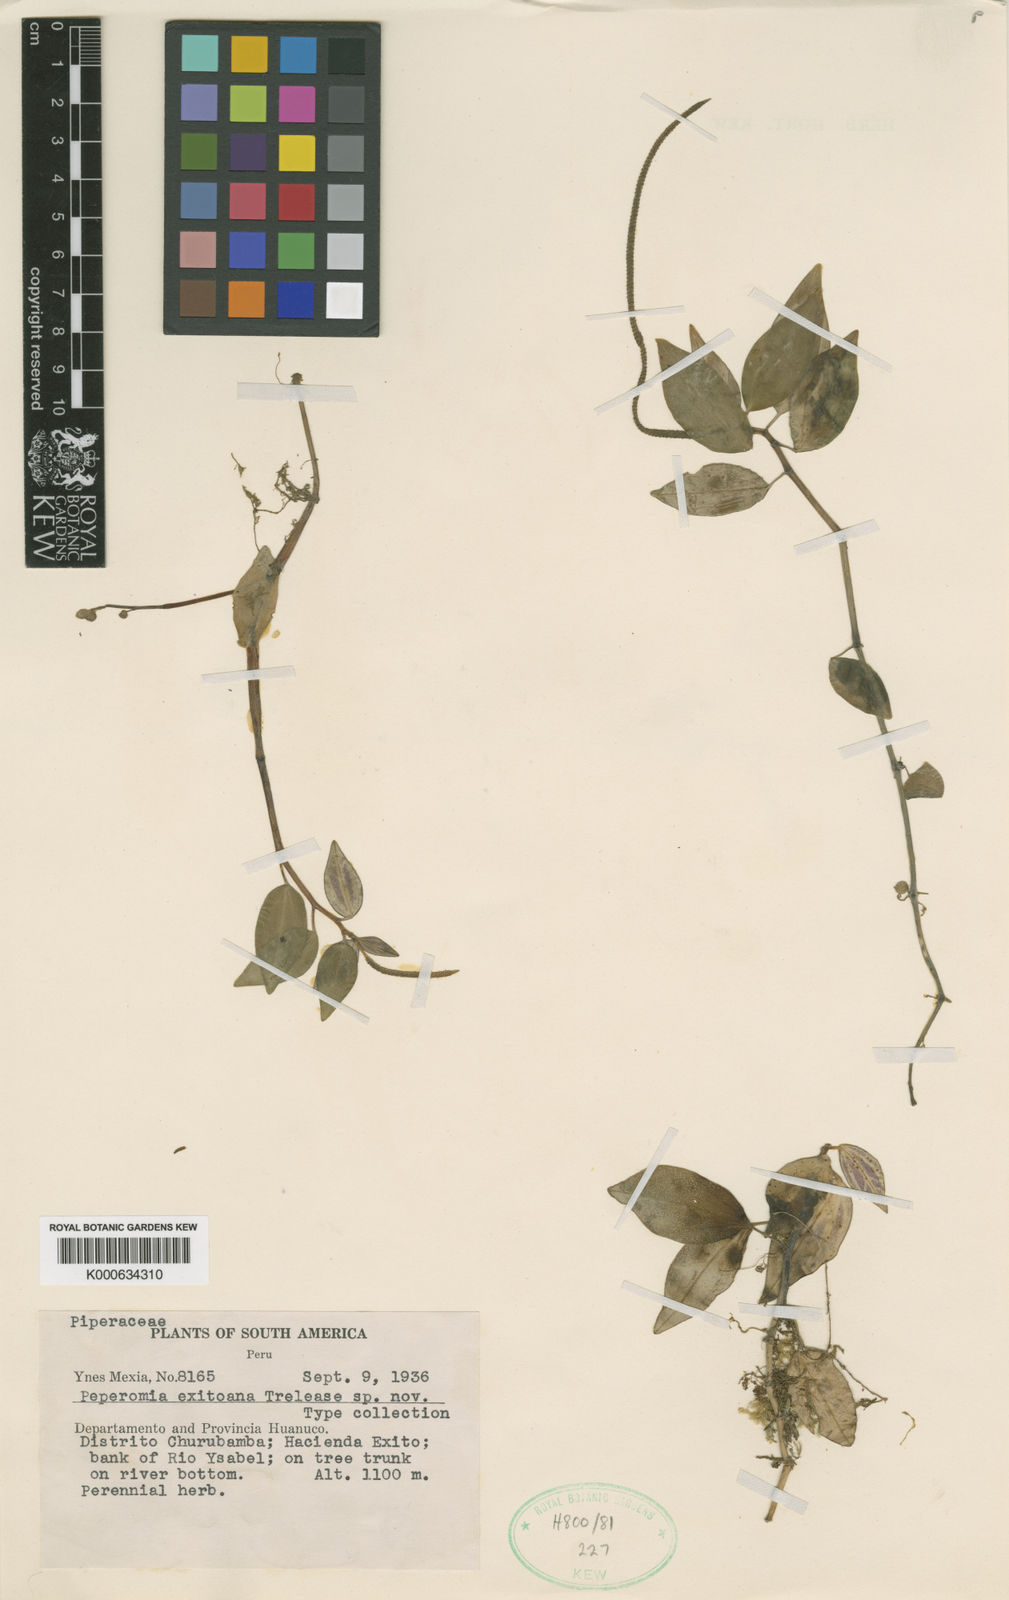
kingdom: Plantae
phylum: Tracheophyta
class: Magnoliopsida
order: Piperales
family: Piperaceae
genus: Peperomia
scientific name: Peperomia
